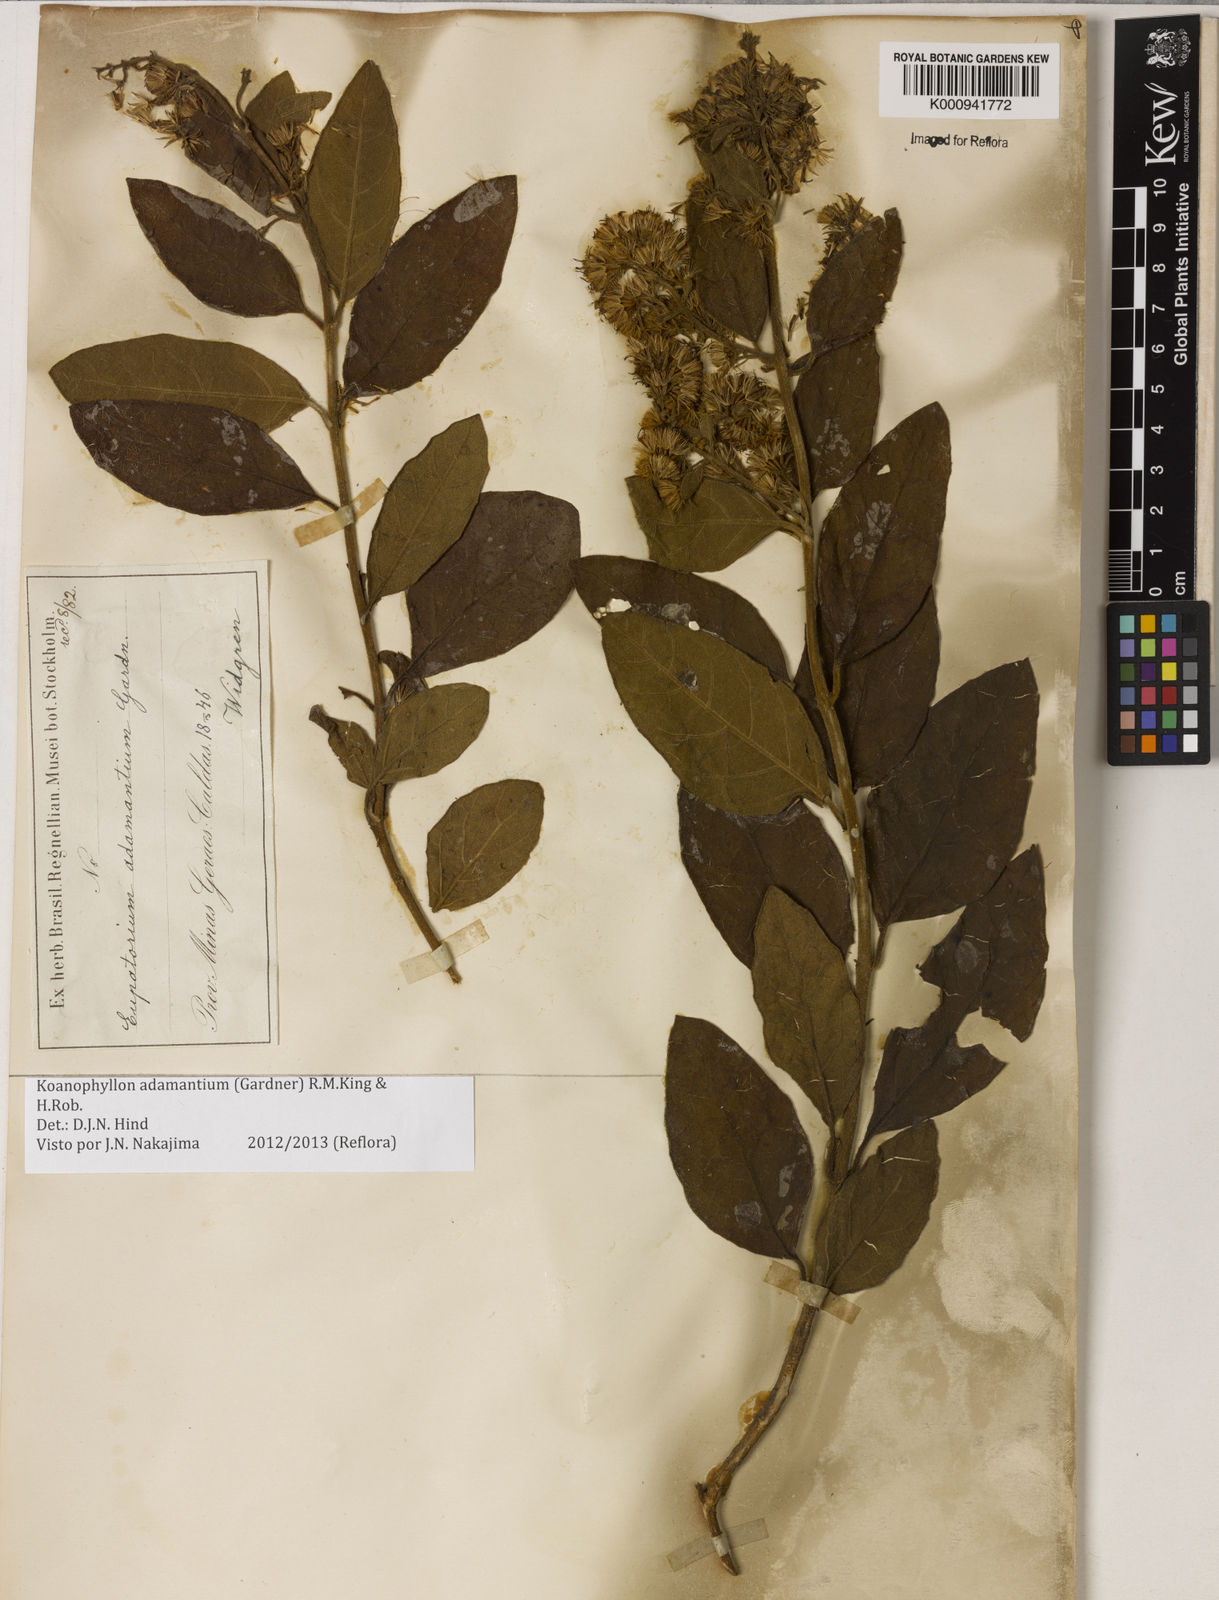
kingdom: Plantae
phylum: Tracheophyta
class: Magnoliopsida
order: Asterales
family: Asteraceae
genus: Koanophyllon
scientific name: Koanophyllon adamantium
